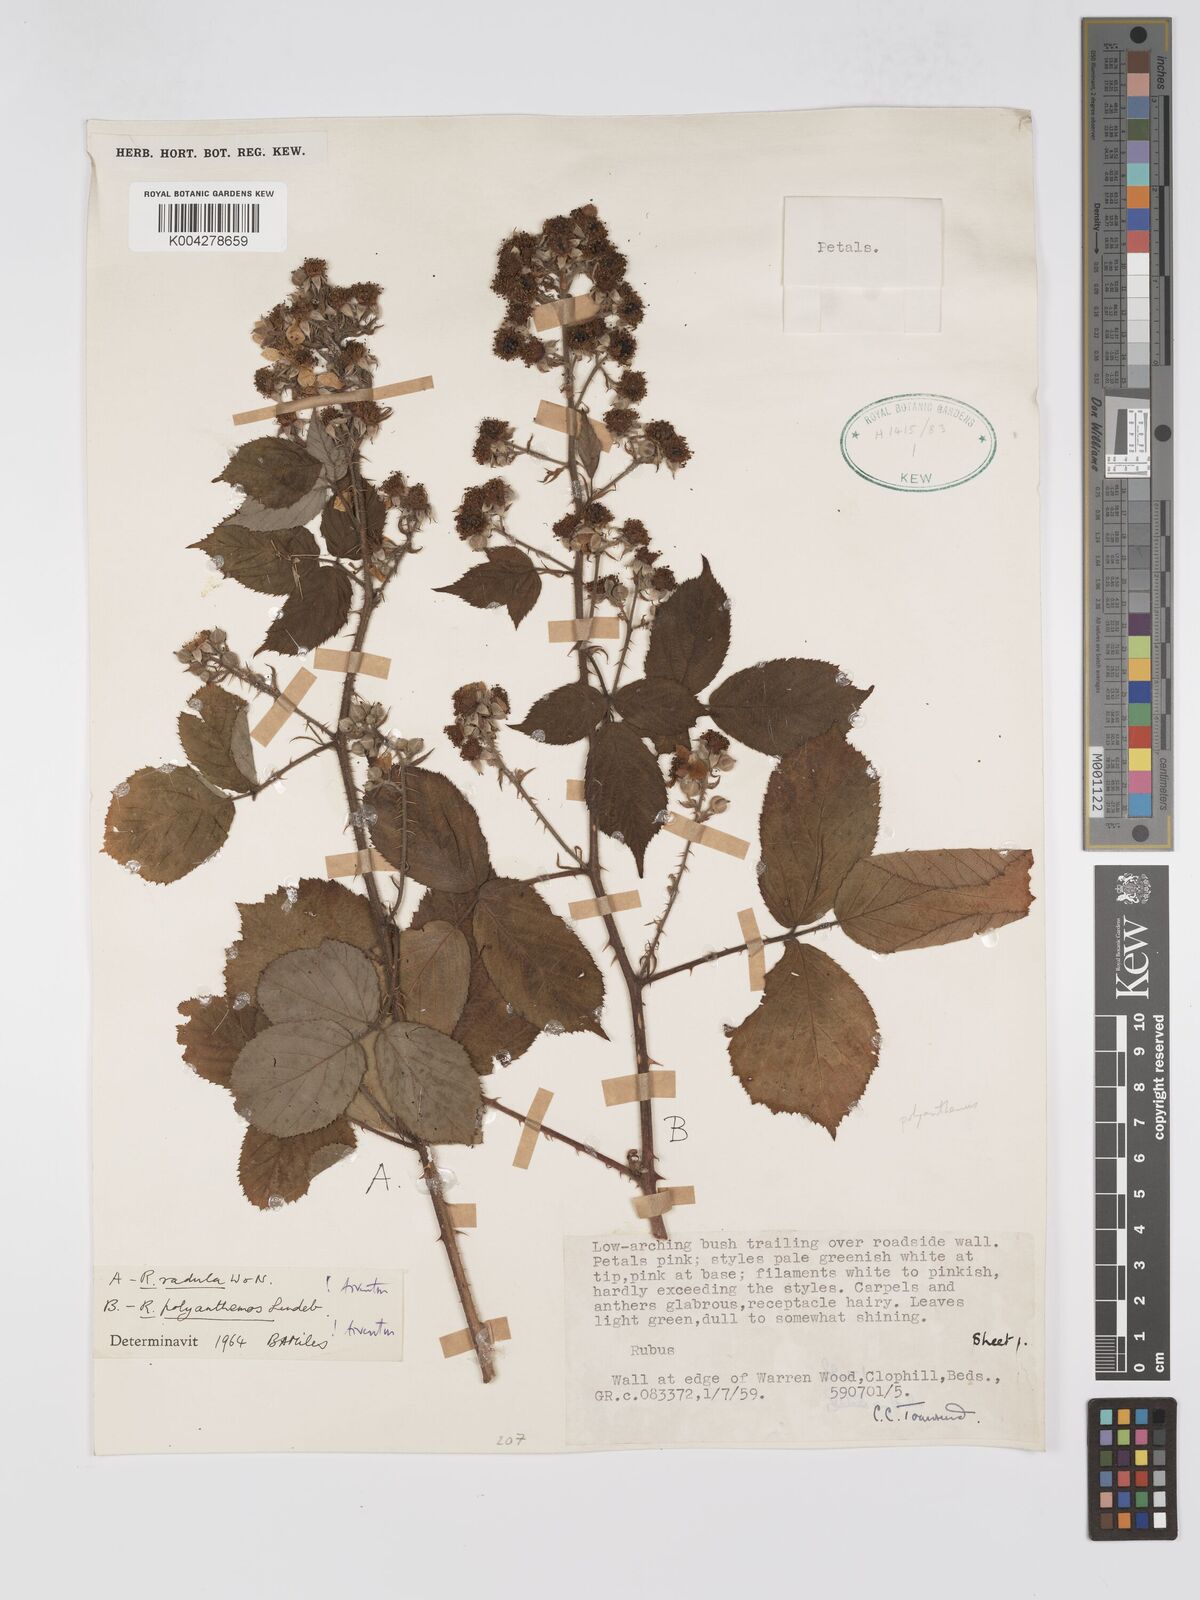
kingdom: Plantae
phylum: Tracheophyta
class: Magnoliopsida
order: Rosales
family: Rosaceae
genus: Rubus
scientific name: Rubus radula
